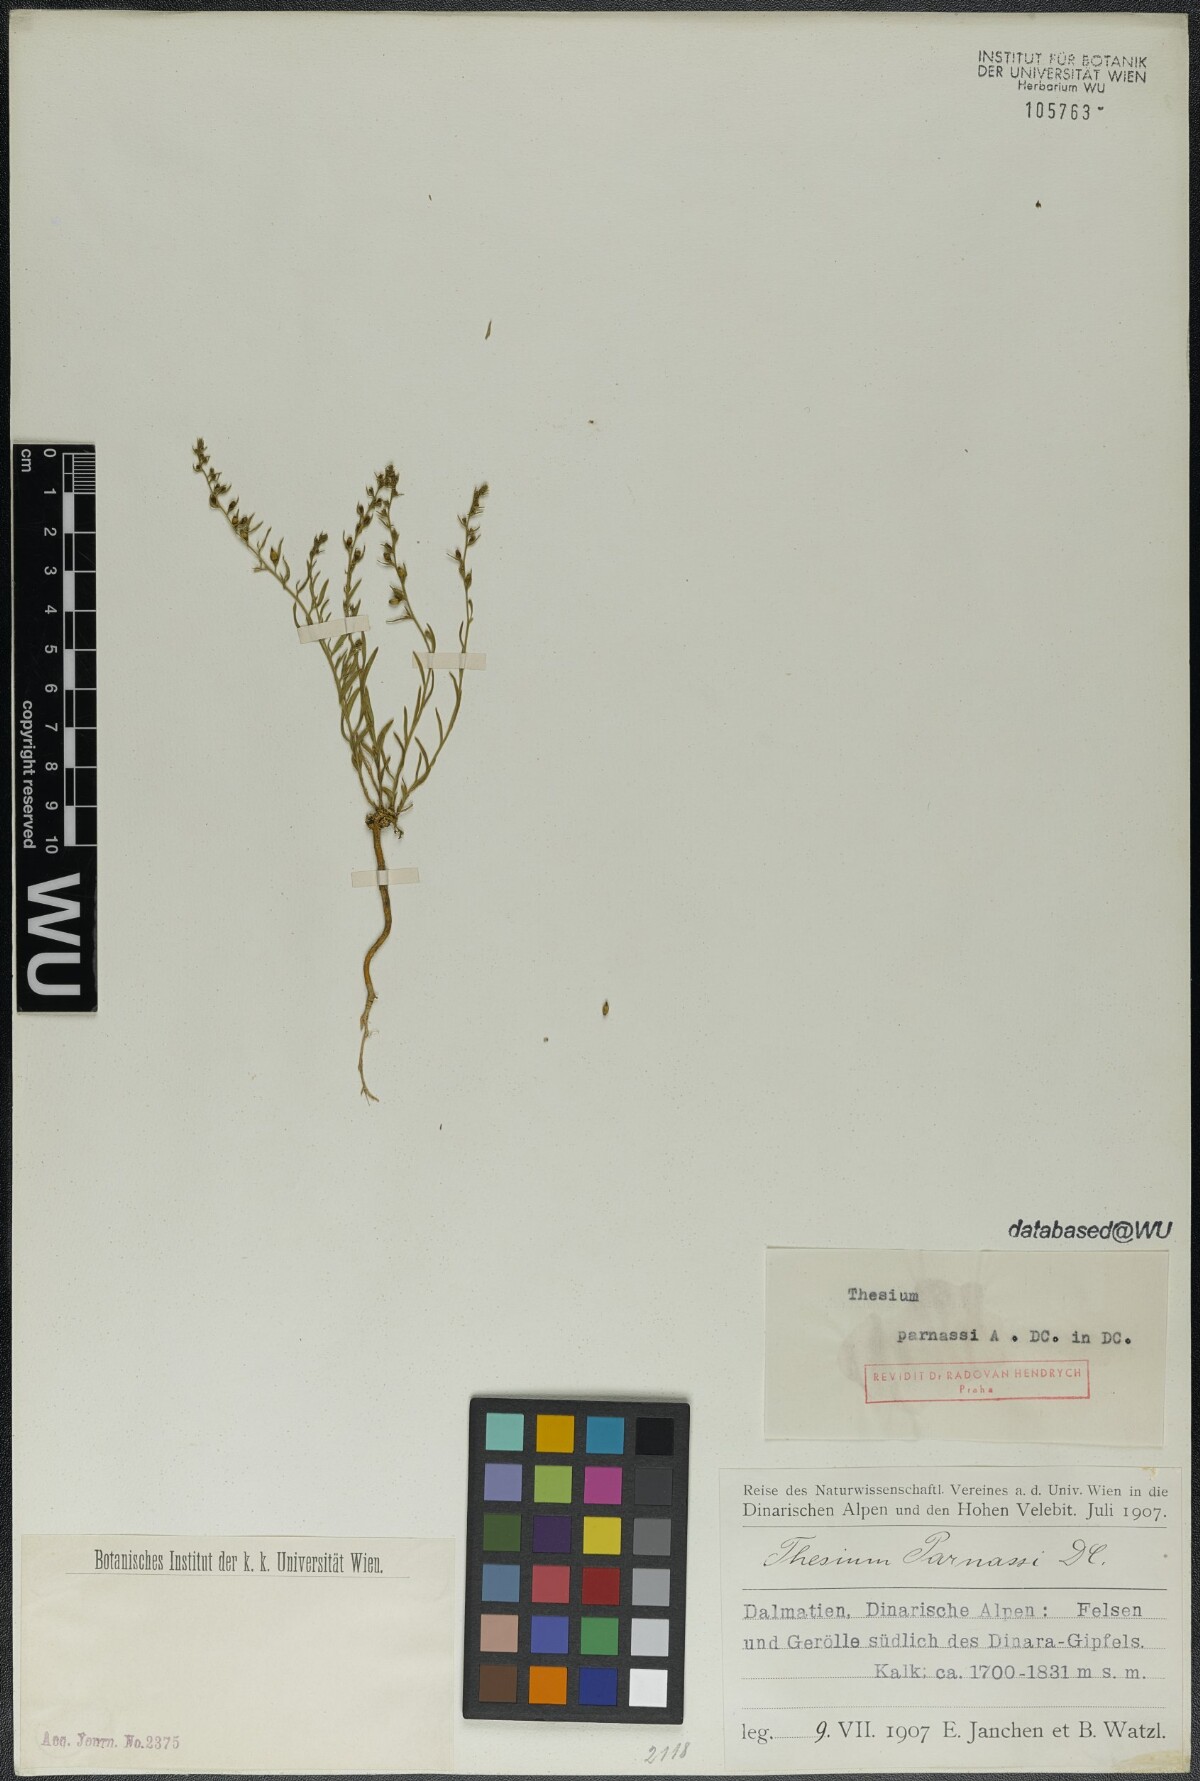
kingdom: Plantae
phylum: Tracheophyta
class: Magnoliopsida
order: Santalales
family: Thesiaceae
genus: Thesium
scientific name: Thesium parnassi
